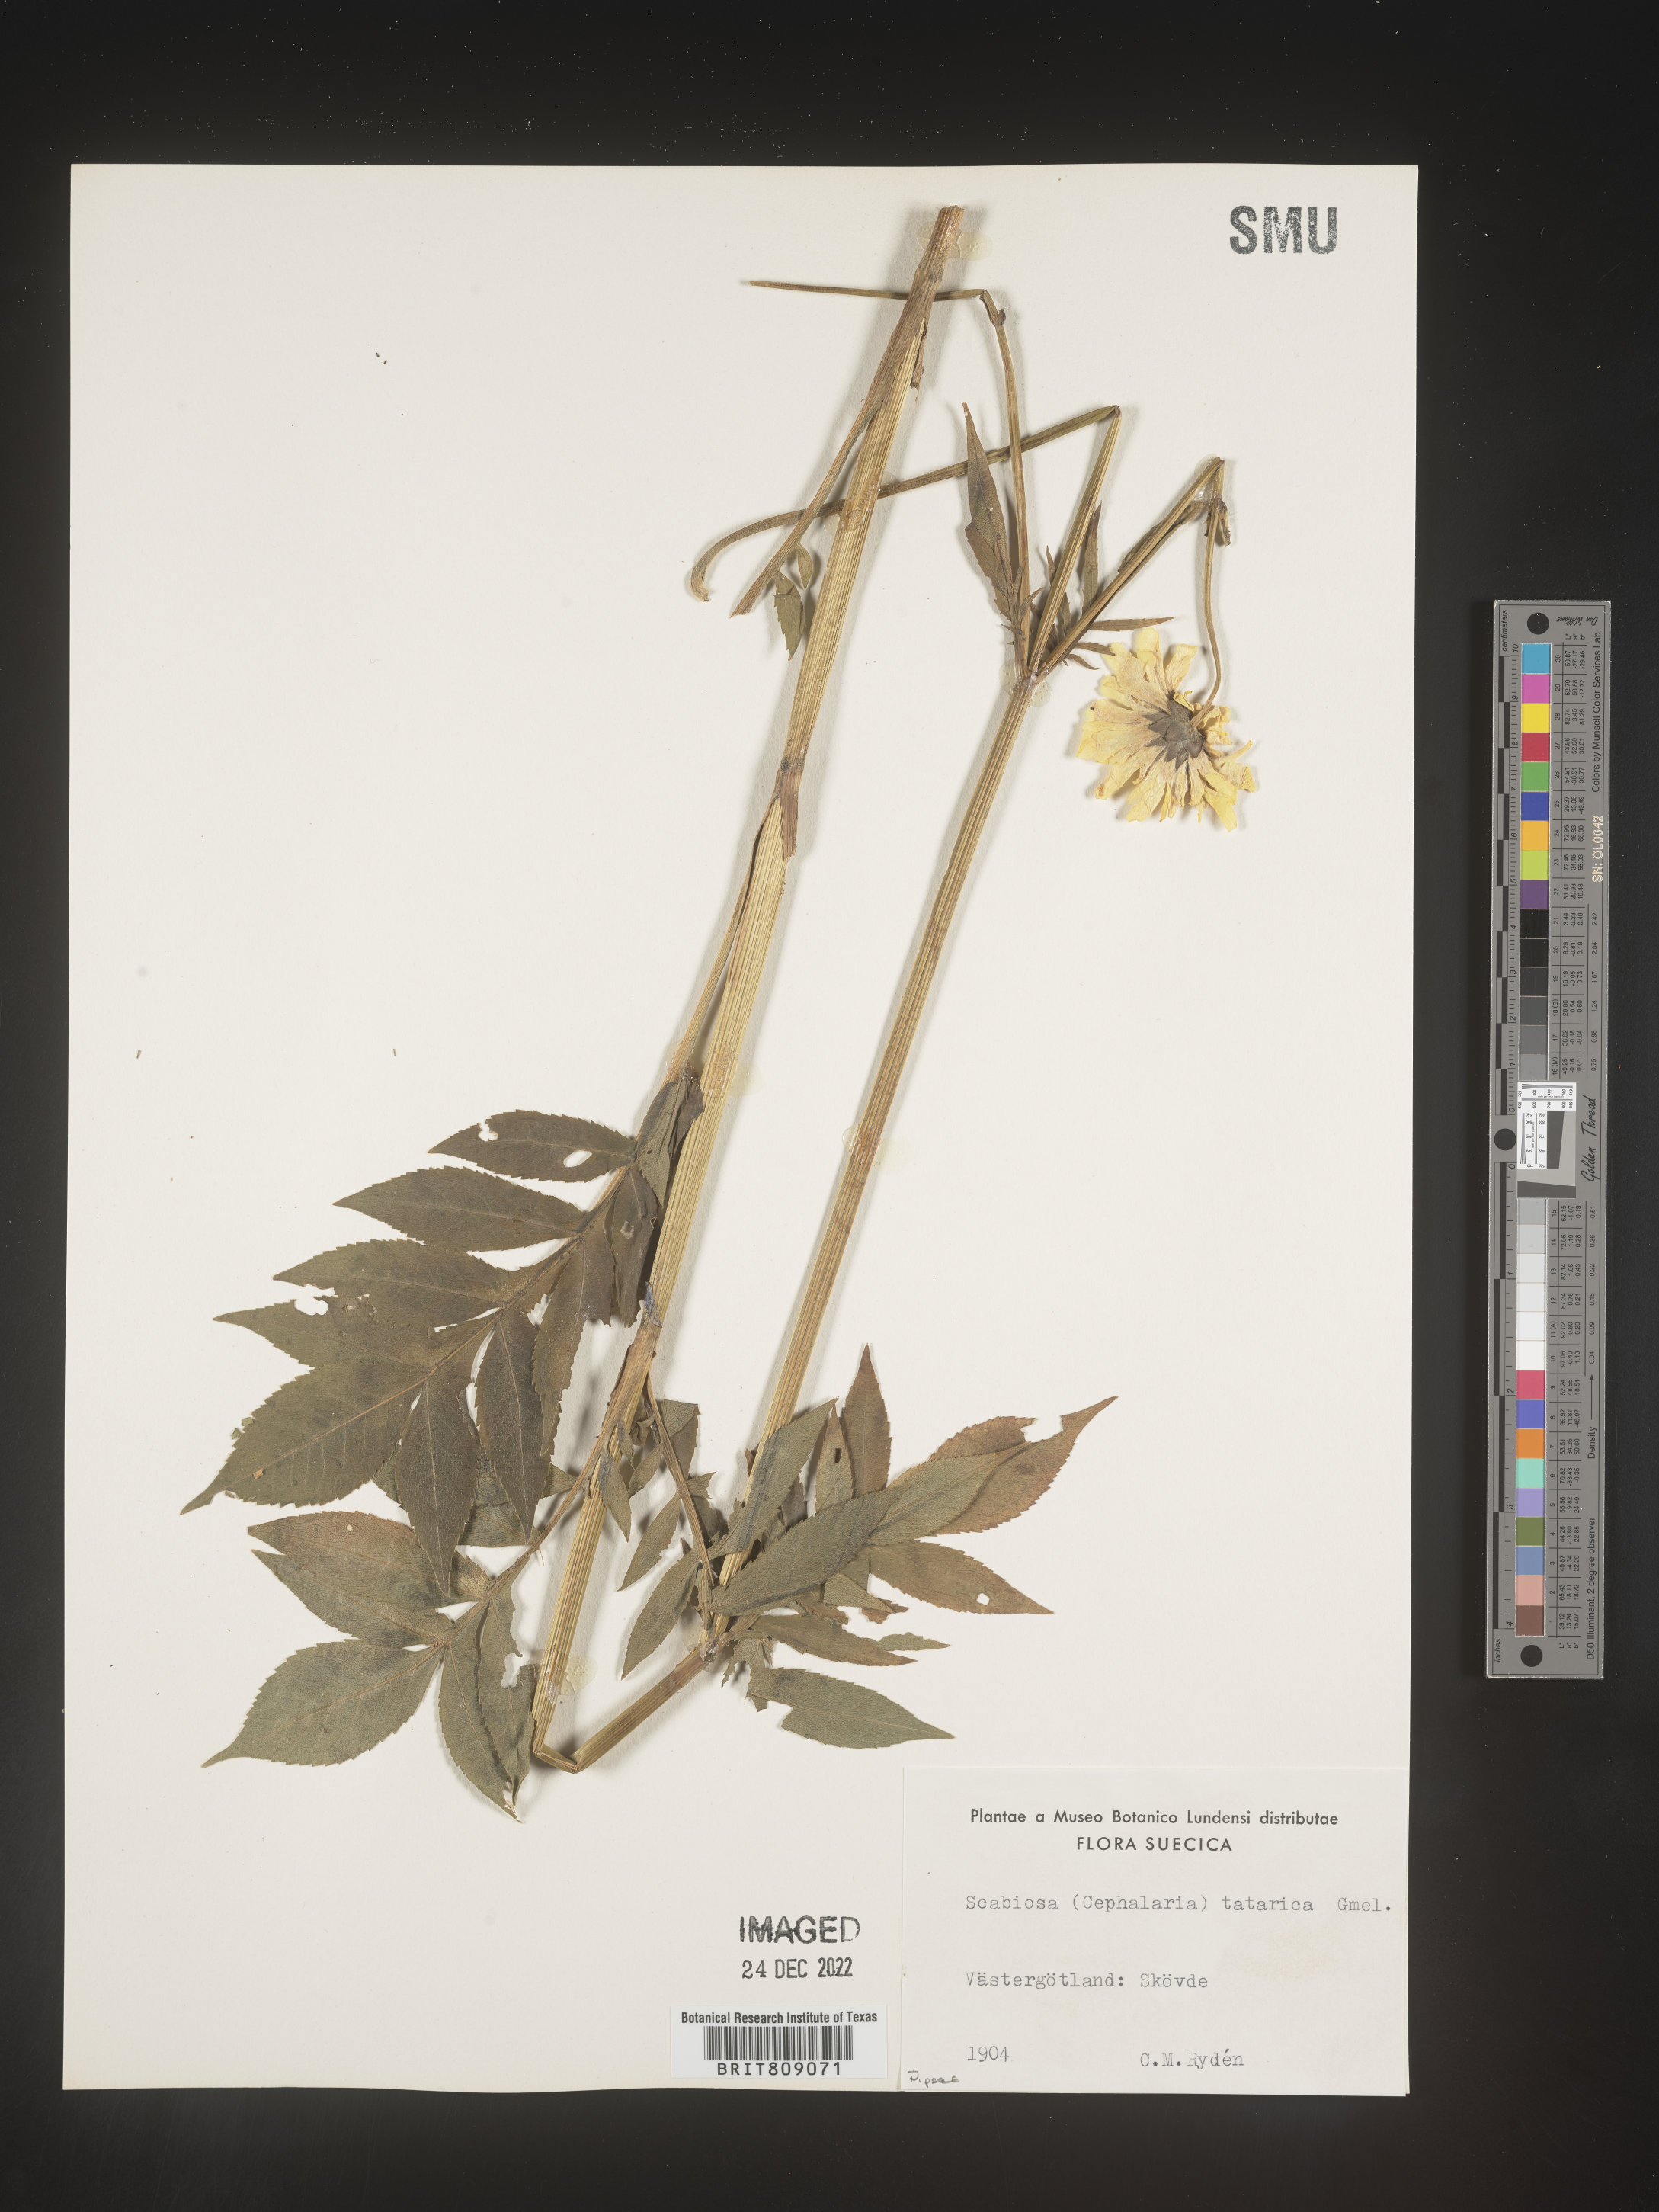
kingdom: Plantae
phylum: Tracheophyta
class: Magnoliopsida
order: Dipsacales
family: Caprifoliaceae
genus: Scabiosa
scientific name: Scabiosa
